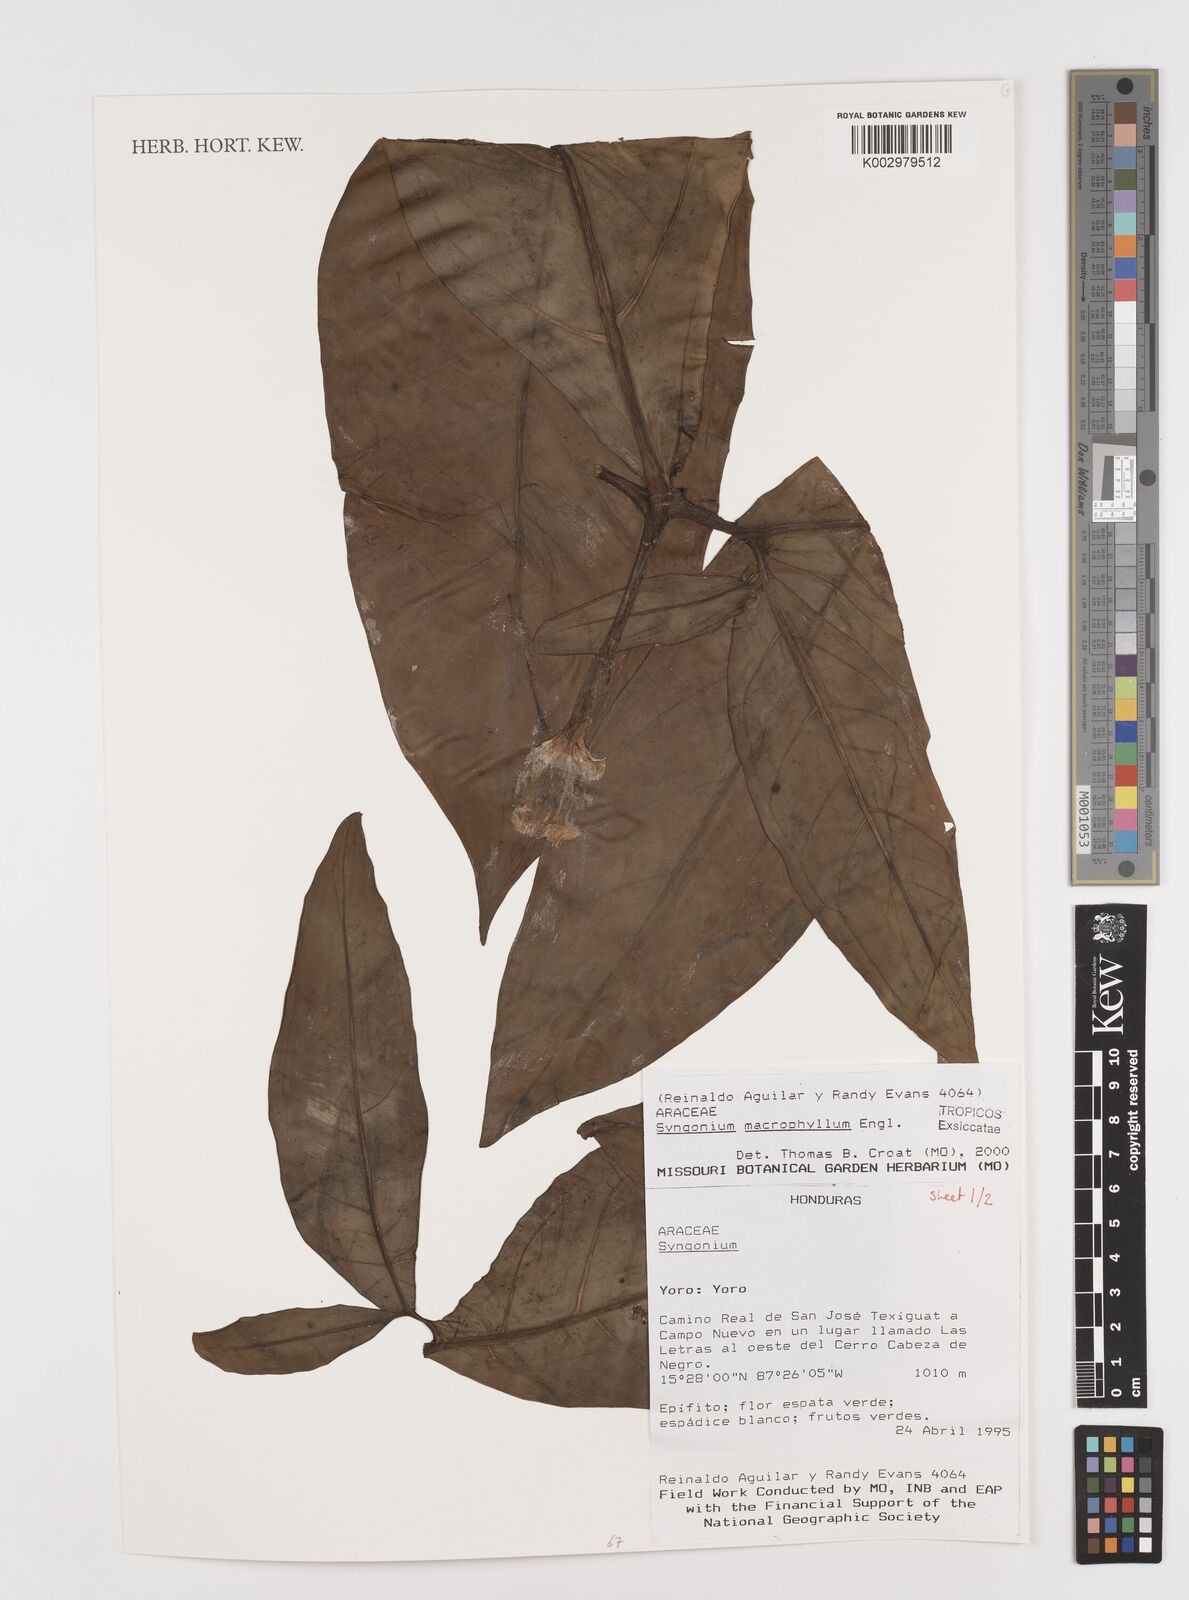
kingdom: Plantae
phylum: Tracheophyta
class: Liliopsida
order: Alismatales
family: Araceae
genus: Syngonium
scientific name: Syngonium macrophyllum
